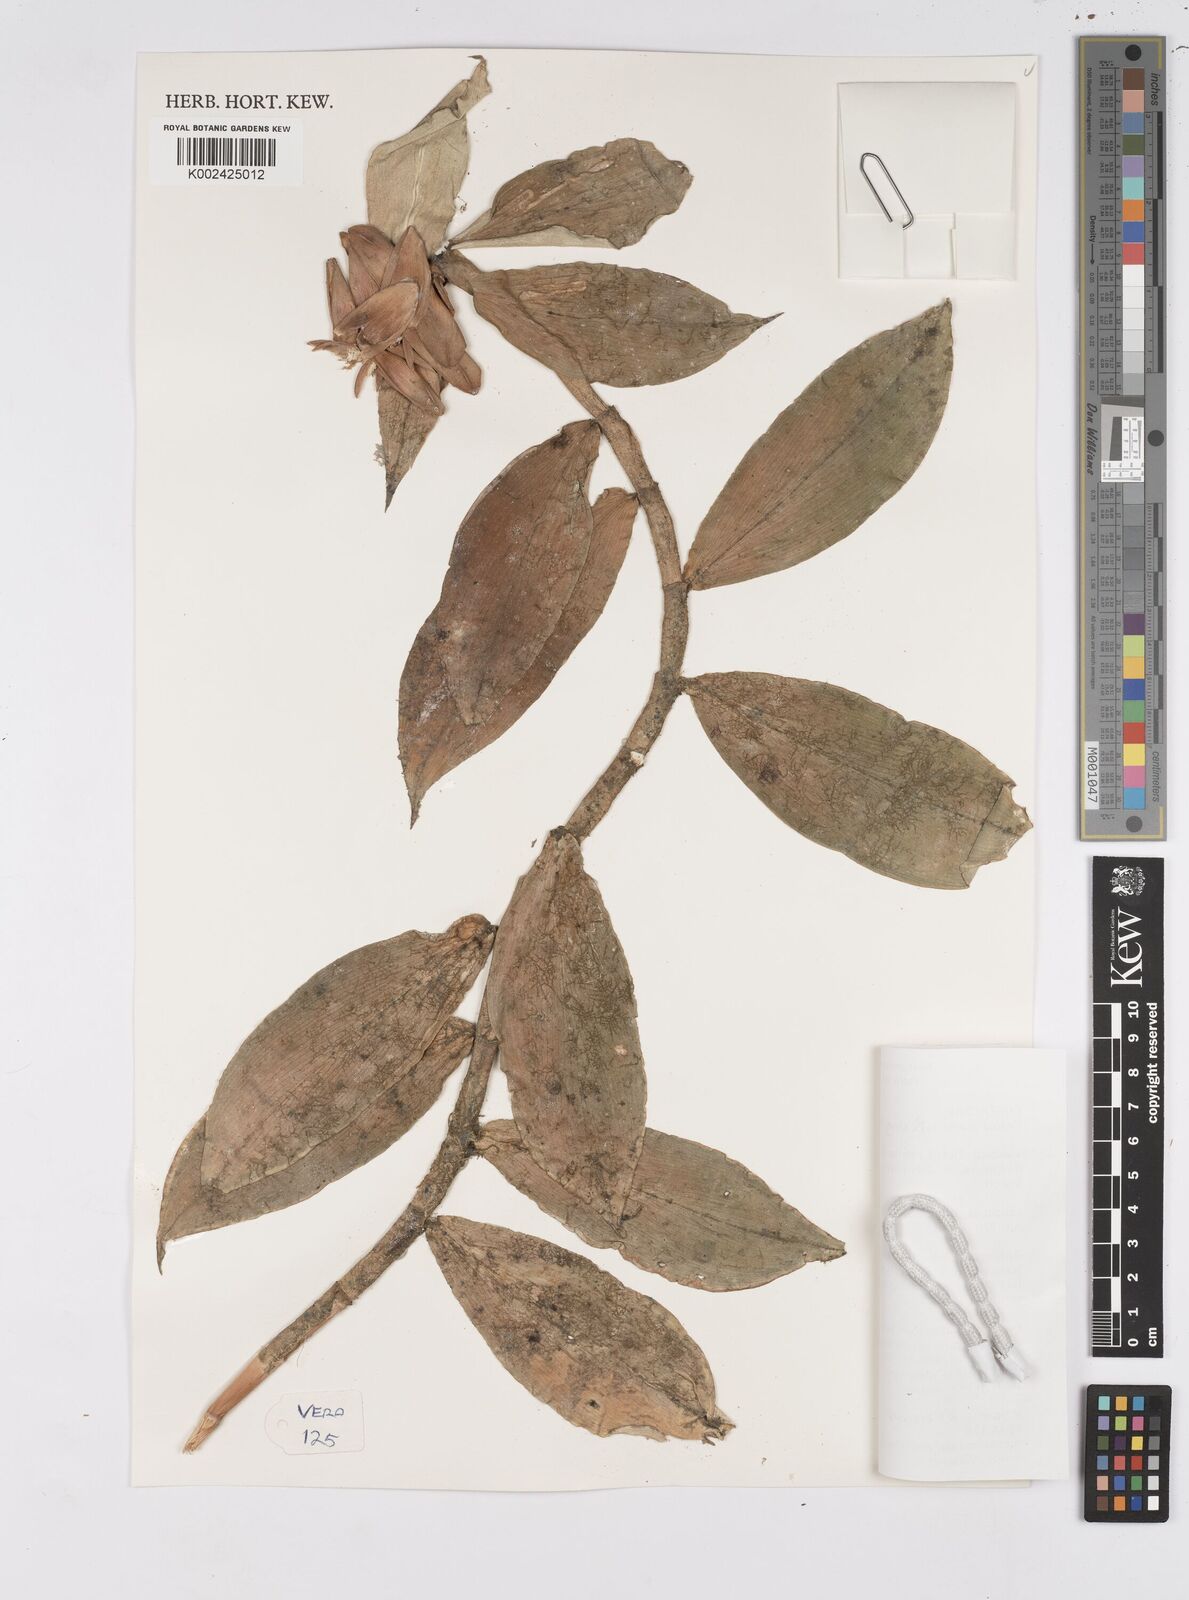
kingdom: Plantae
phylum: Tracheophyta
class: Liliopsida
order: Zingiberales
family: Costaceae
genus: Costus
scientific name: Costus scaber
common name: Spiral head ginger
